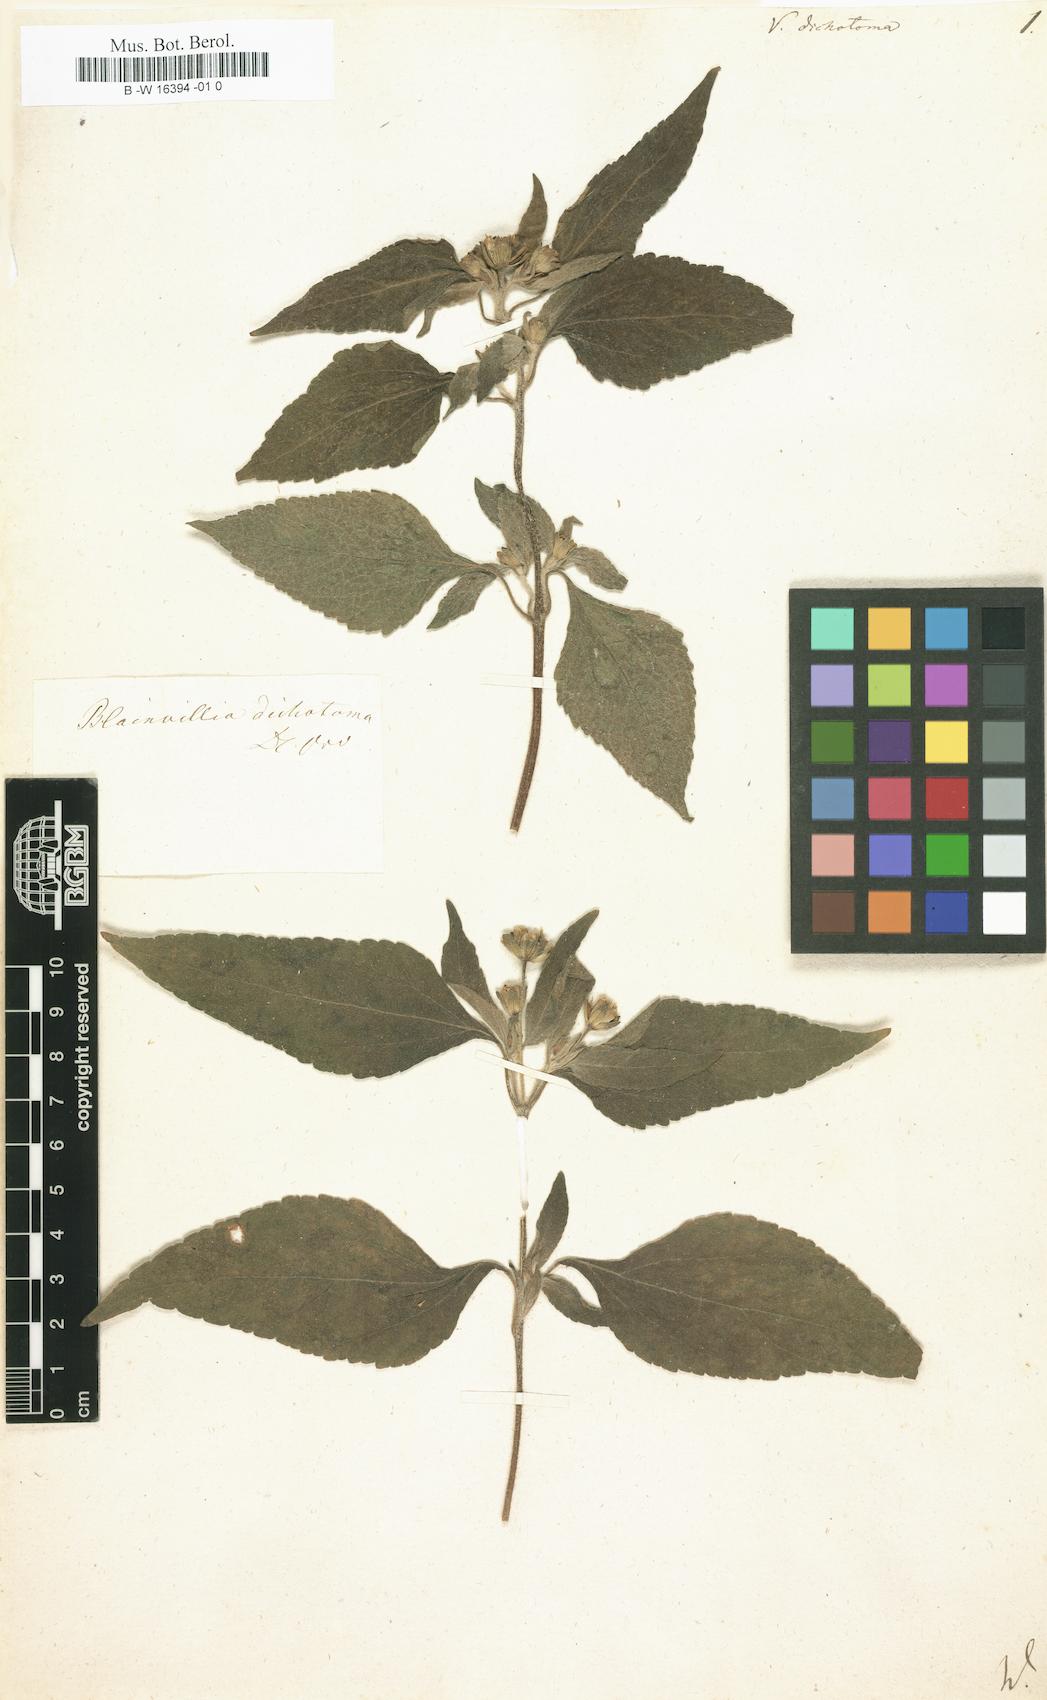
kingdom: Plantae
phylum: Tracheophyta
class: Magnoliopsida
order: Asterales
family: Asteraceae
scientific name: Asteraceae
